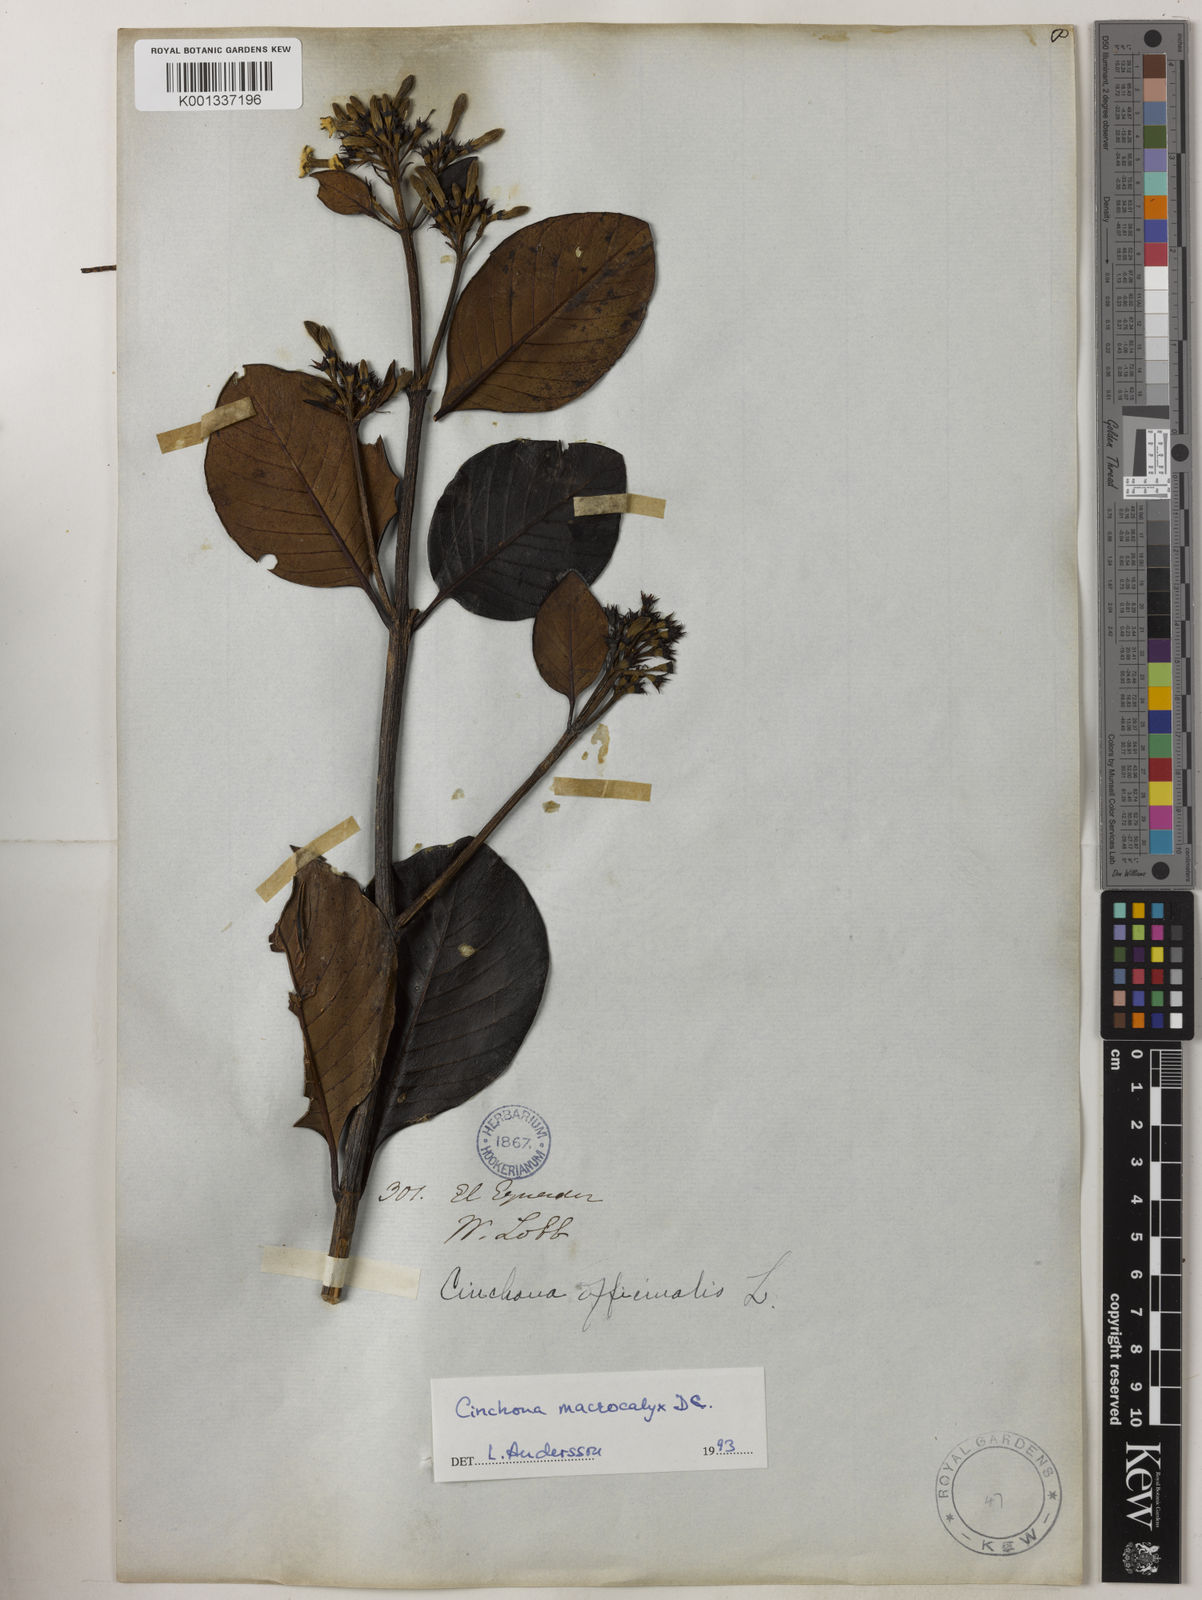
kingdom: Plantae
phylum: Tracheophyta
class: Magnoliopsida
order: Gentianales
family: Rubiaceae
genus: Cinchona
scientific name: Cinchona macrocalyx
